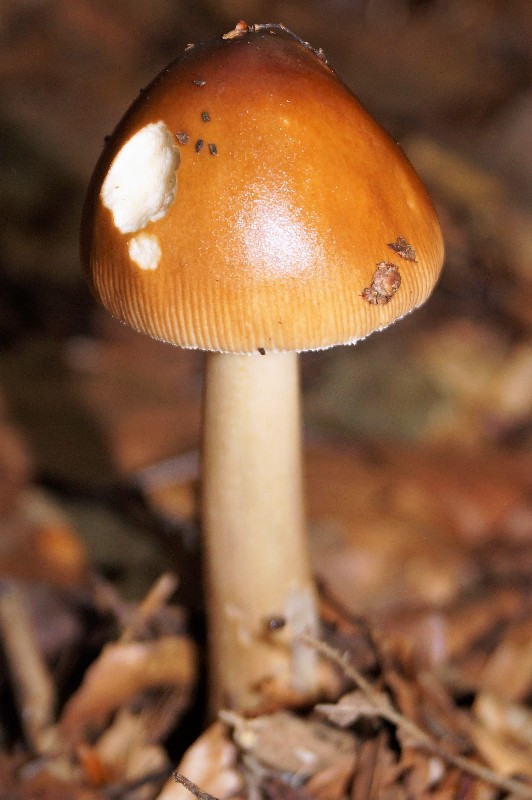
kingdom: Fungi
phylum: Basidiomycota
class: Agaricomycetes
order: Agaricales
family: Amanitaceae
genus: Amanita
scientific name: Amanita fulva
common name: brun kam-fluesvamp
